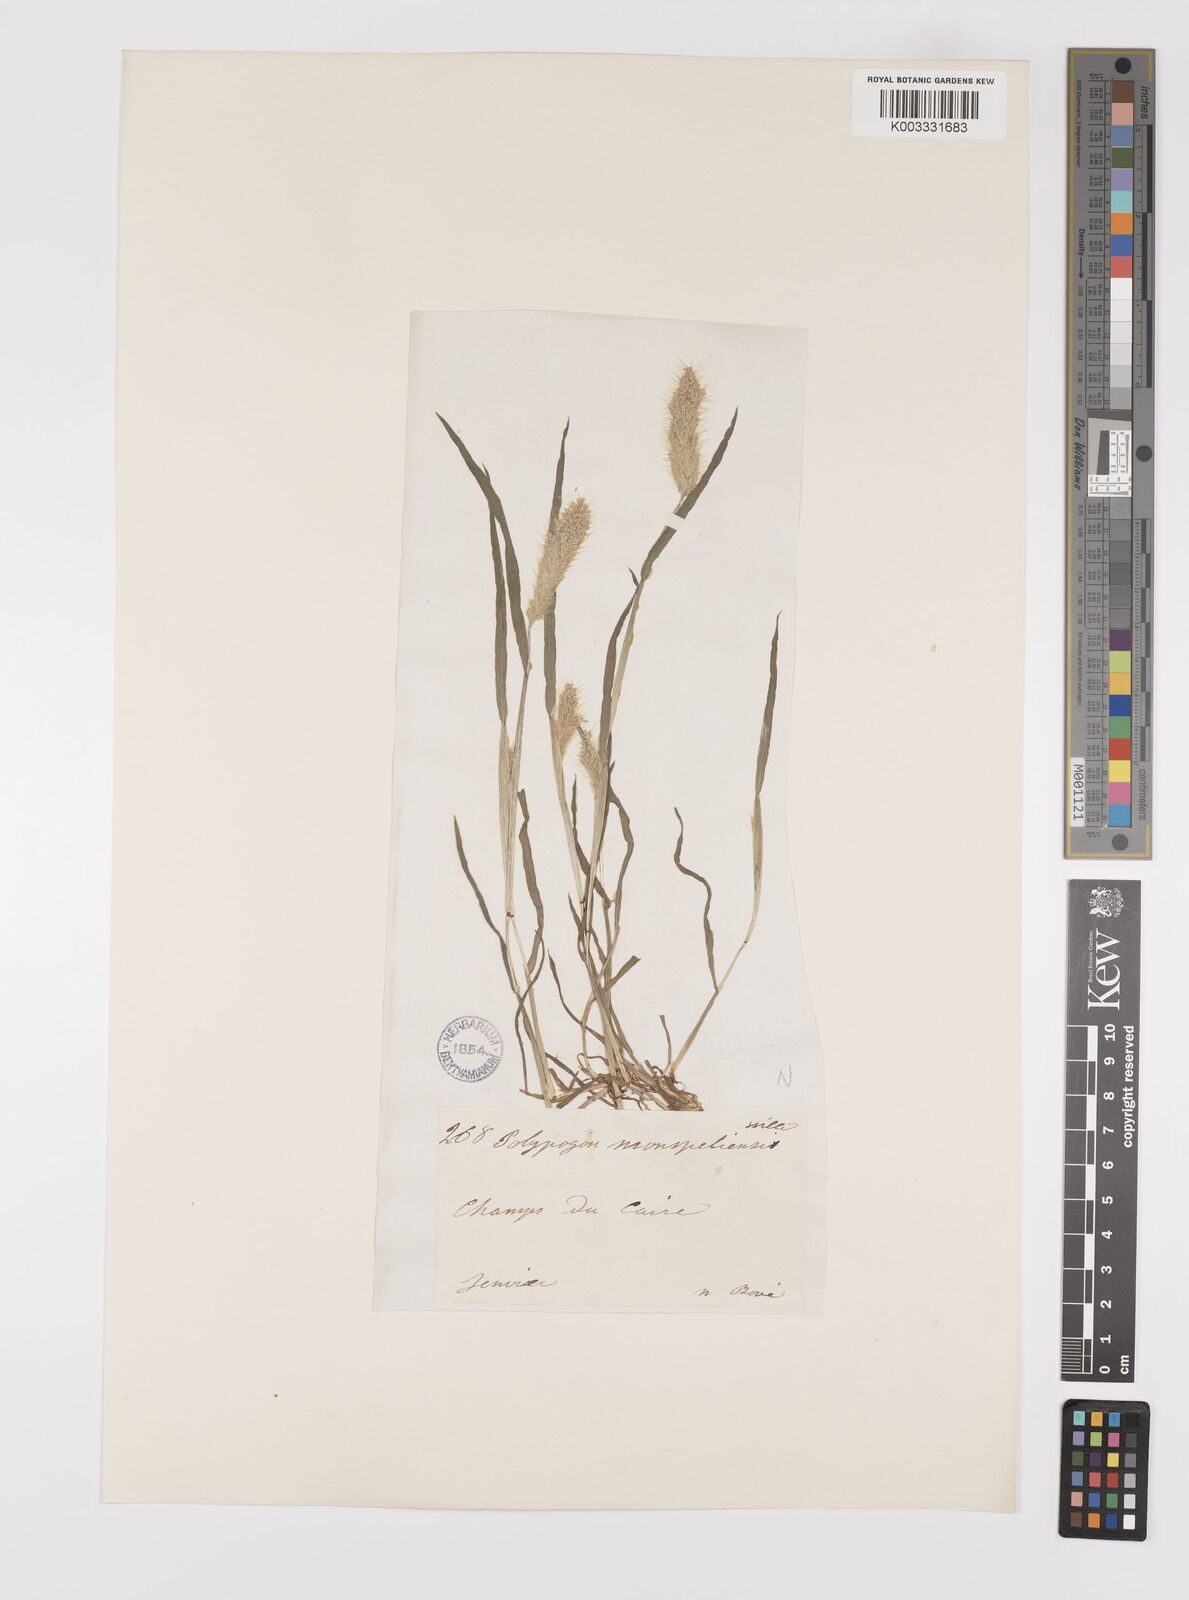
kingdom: Plantae
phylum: Tracheophyta
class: Liliopsida
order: Poales
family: Poaceae
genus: Polypogon
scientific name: Polypogon monspeliensis
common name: Annual rabbitsfoot grass
